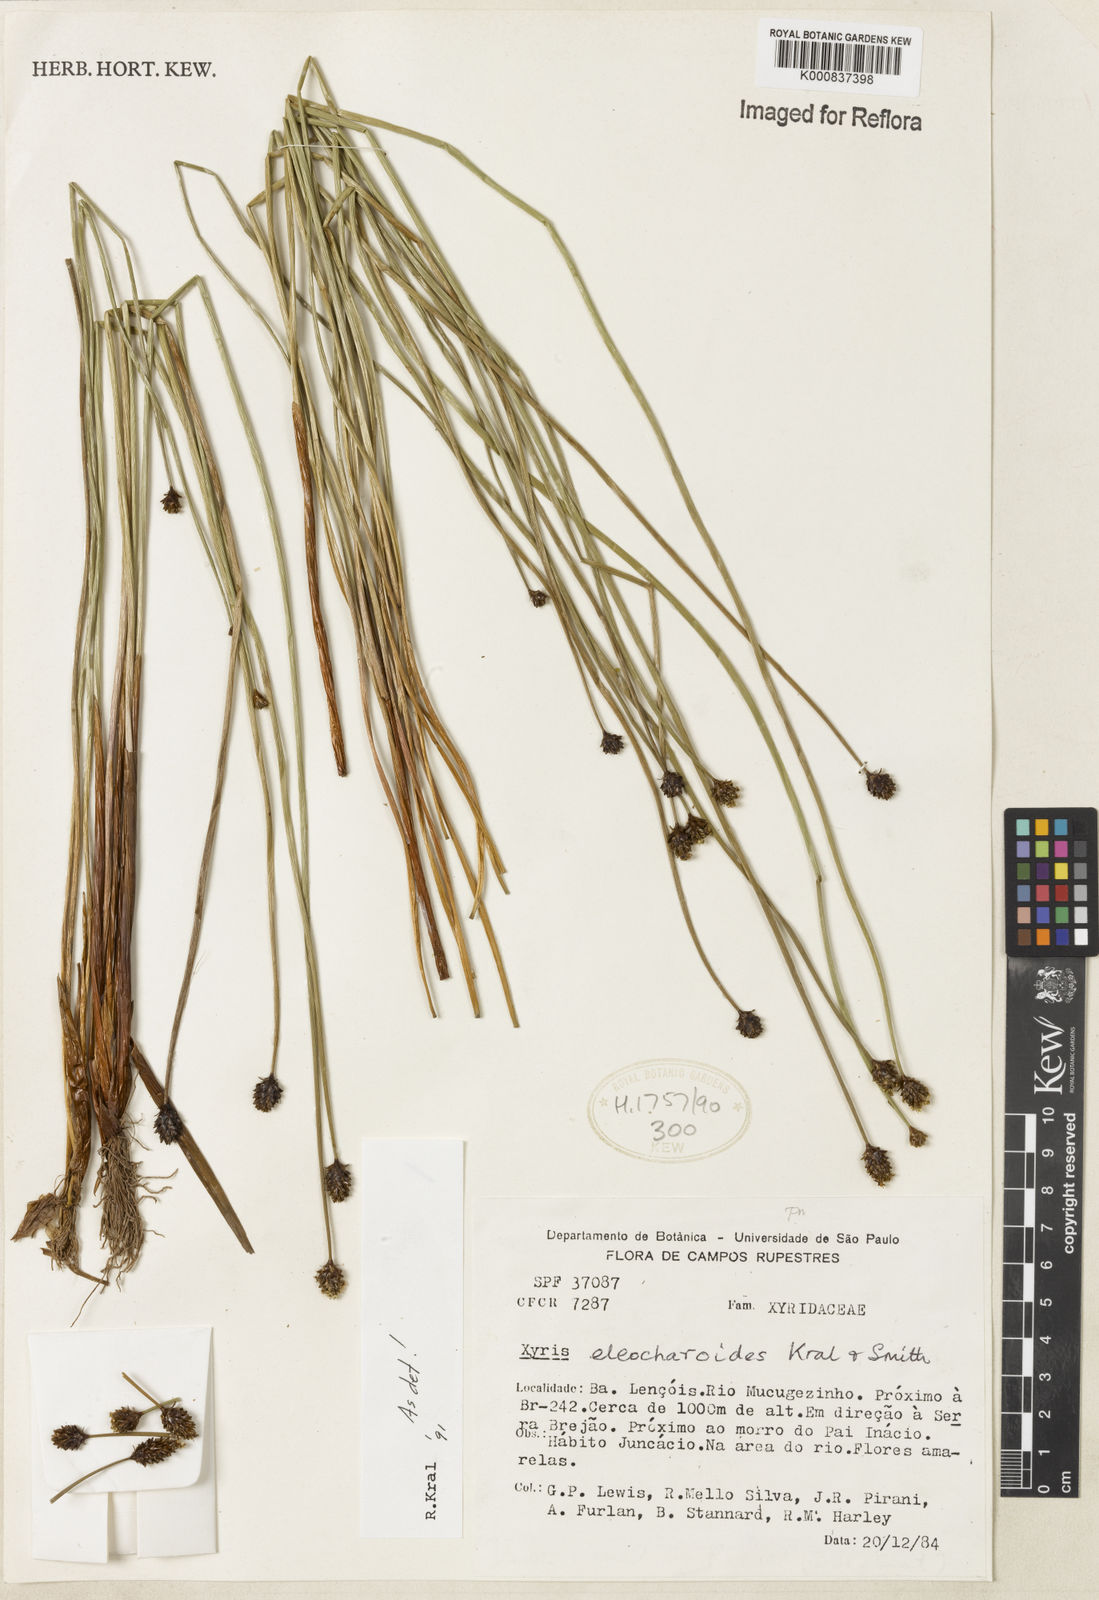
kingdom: Plantae
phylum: Tracheophyta
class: Liliopsida
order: Poales
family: Xyridaceae
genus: Xyris
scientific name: Xyris eleocharoides
